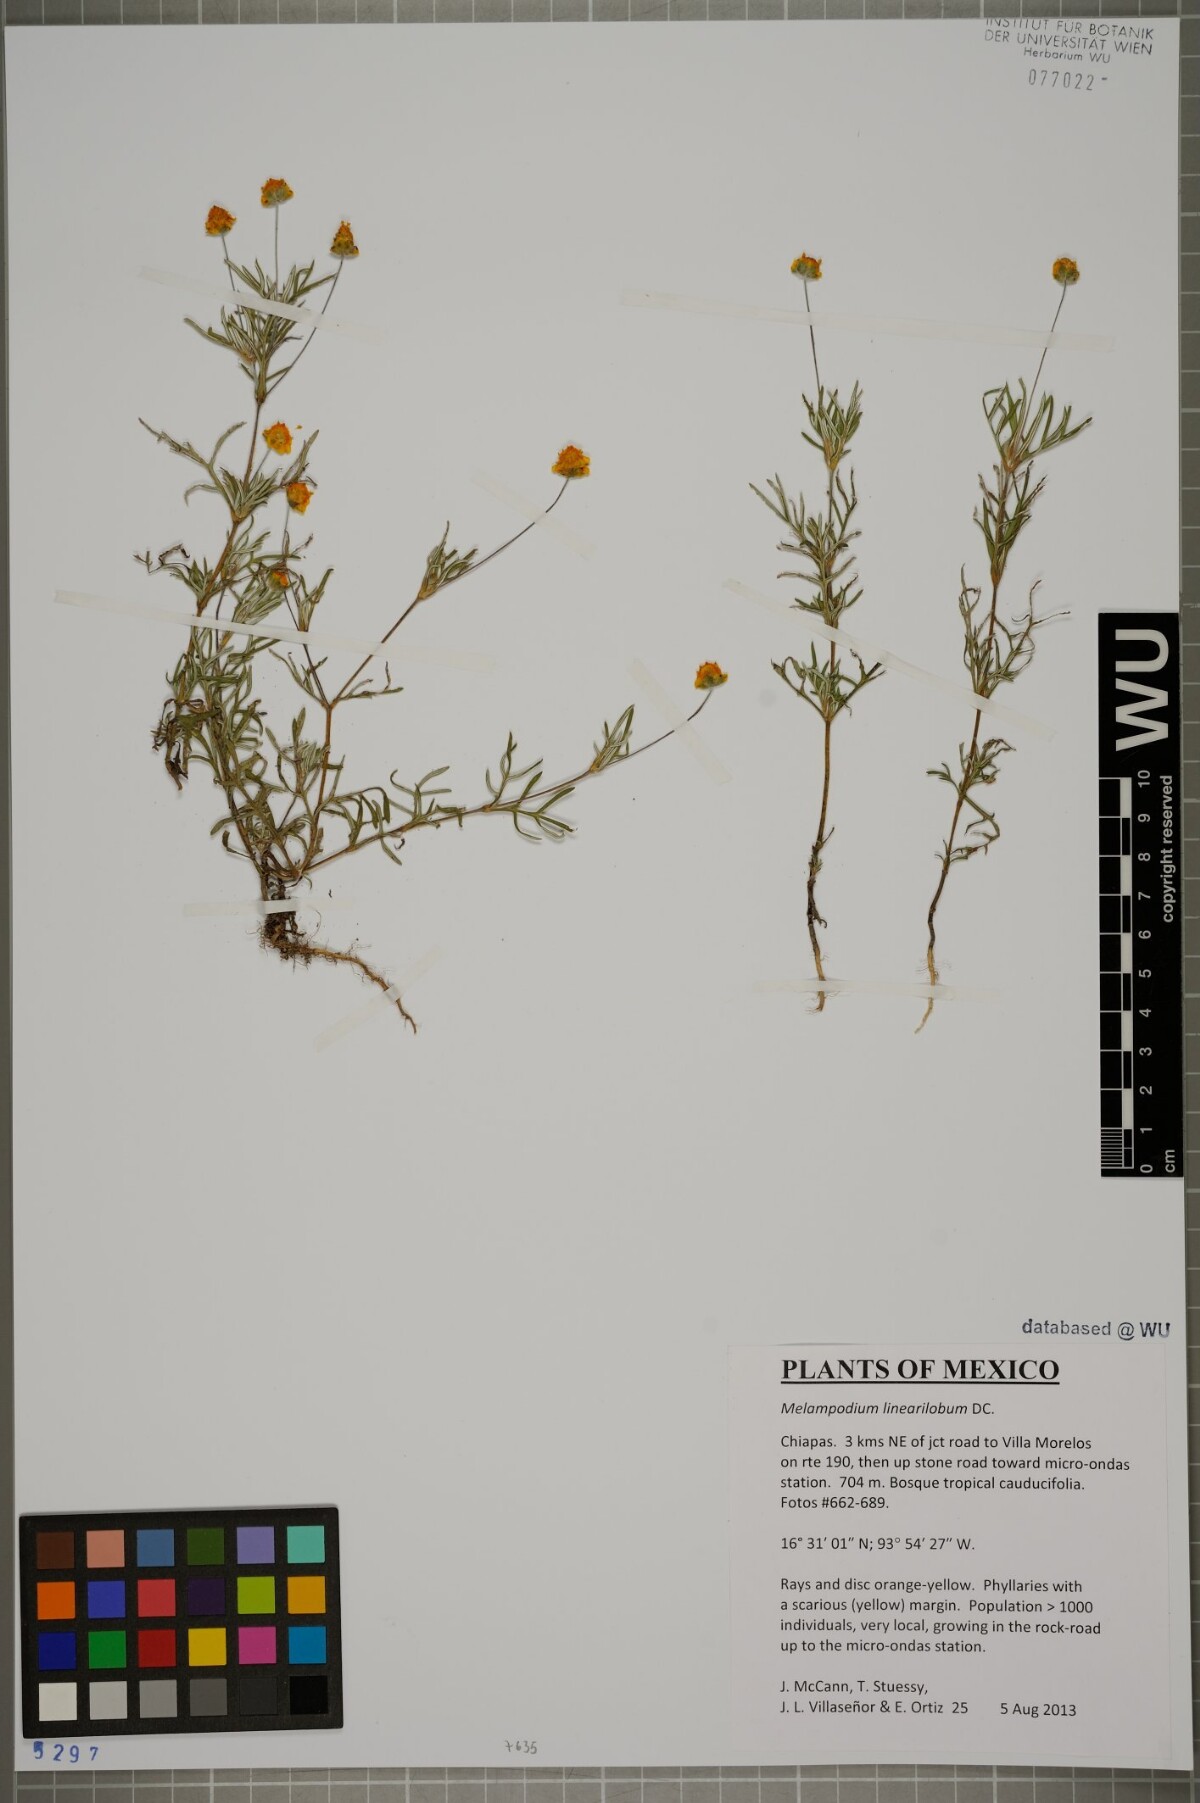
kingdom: Plantae
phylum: Tracheophyta
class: Magnoliopsida
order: Asterales
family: Asteraceae
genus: Melampodium
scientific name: Melampodium linearilobum
